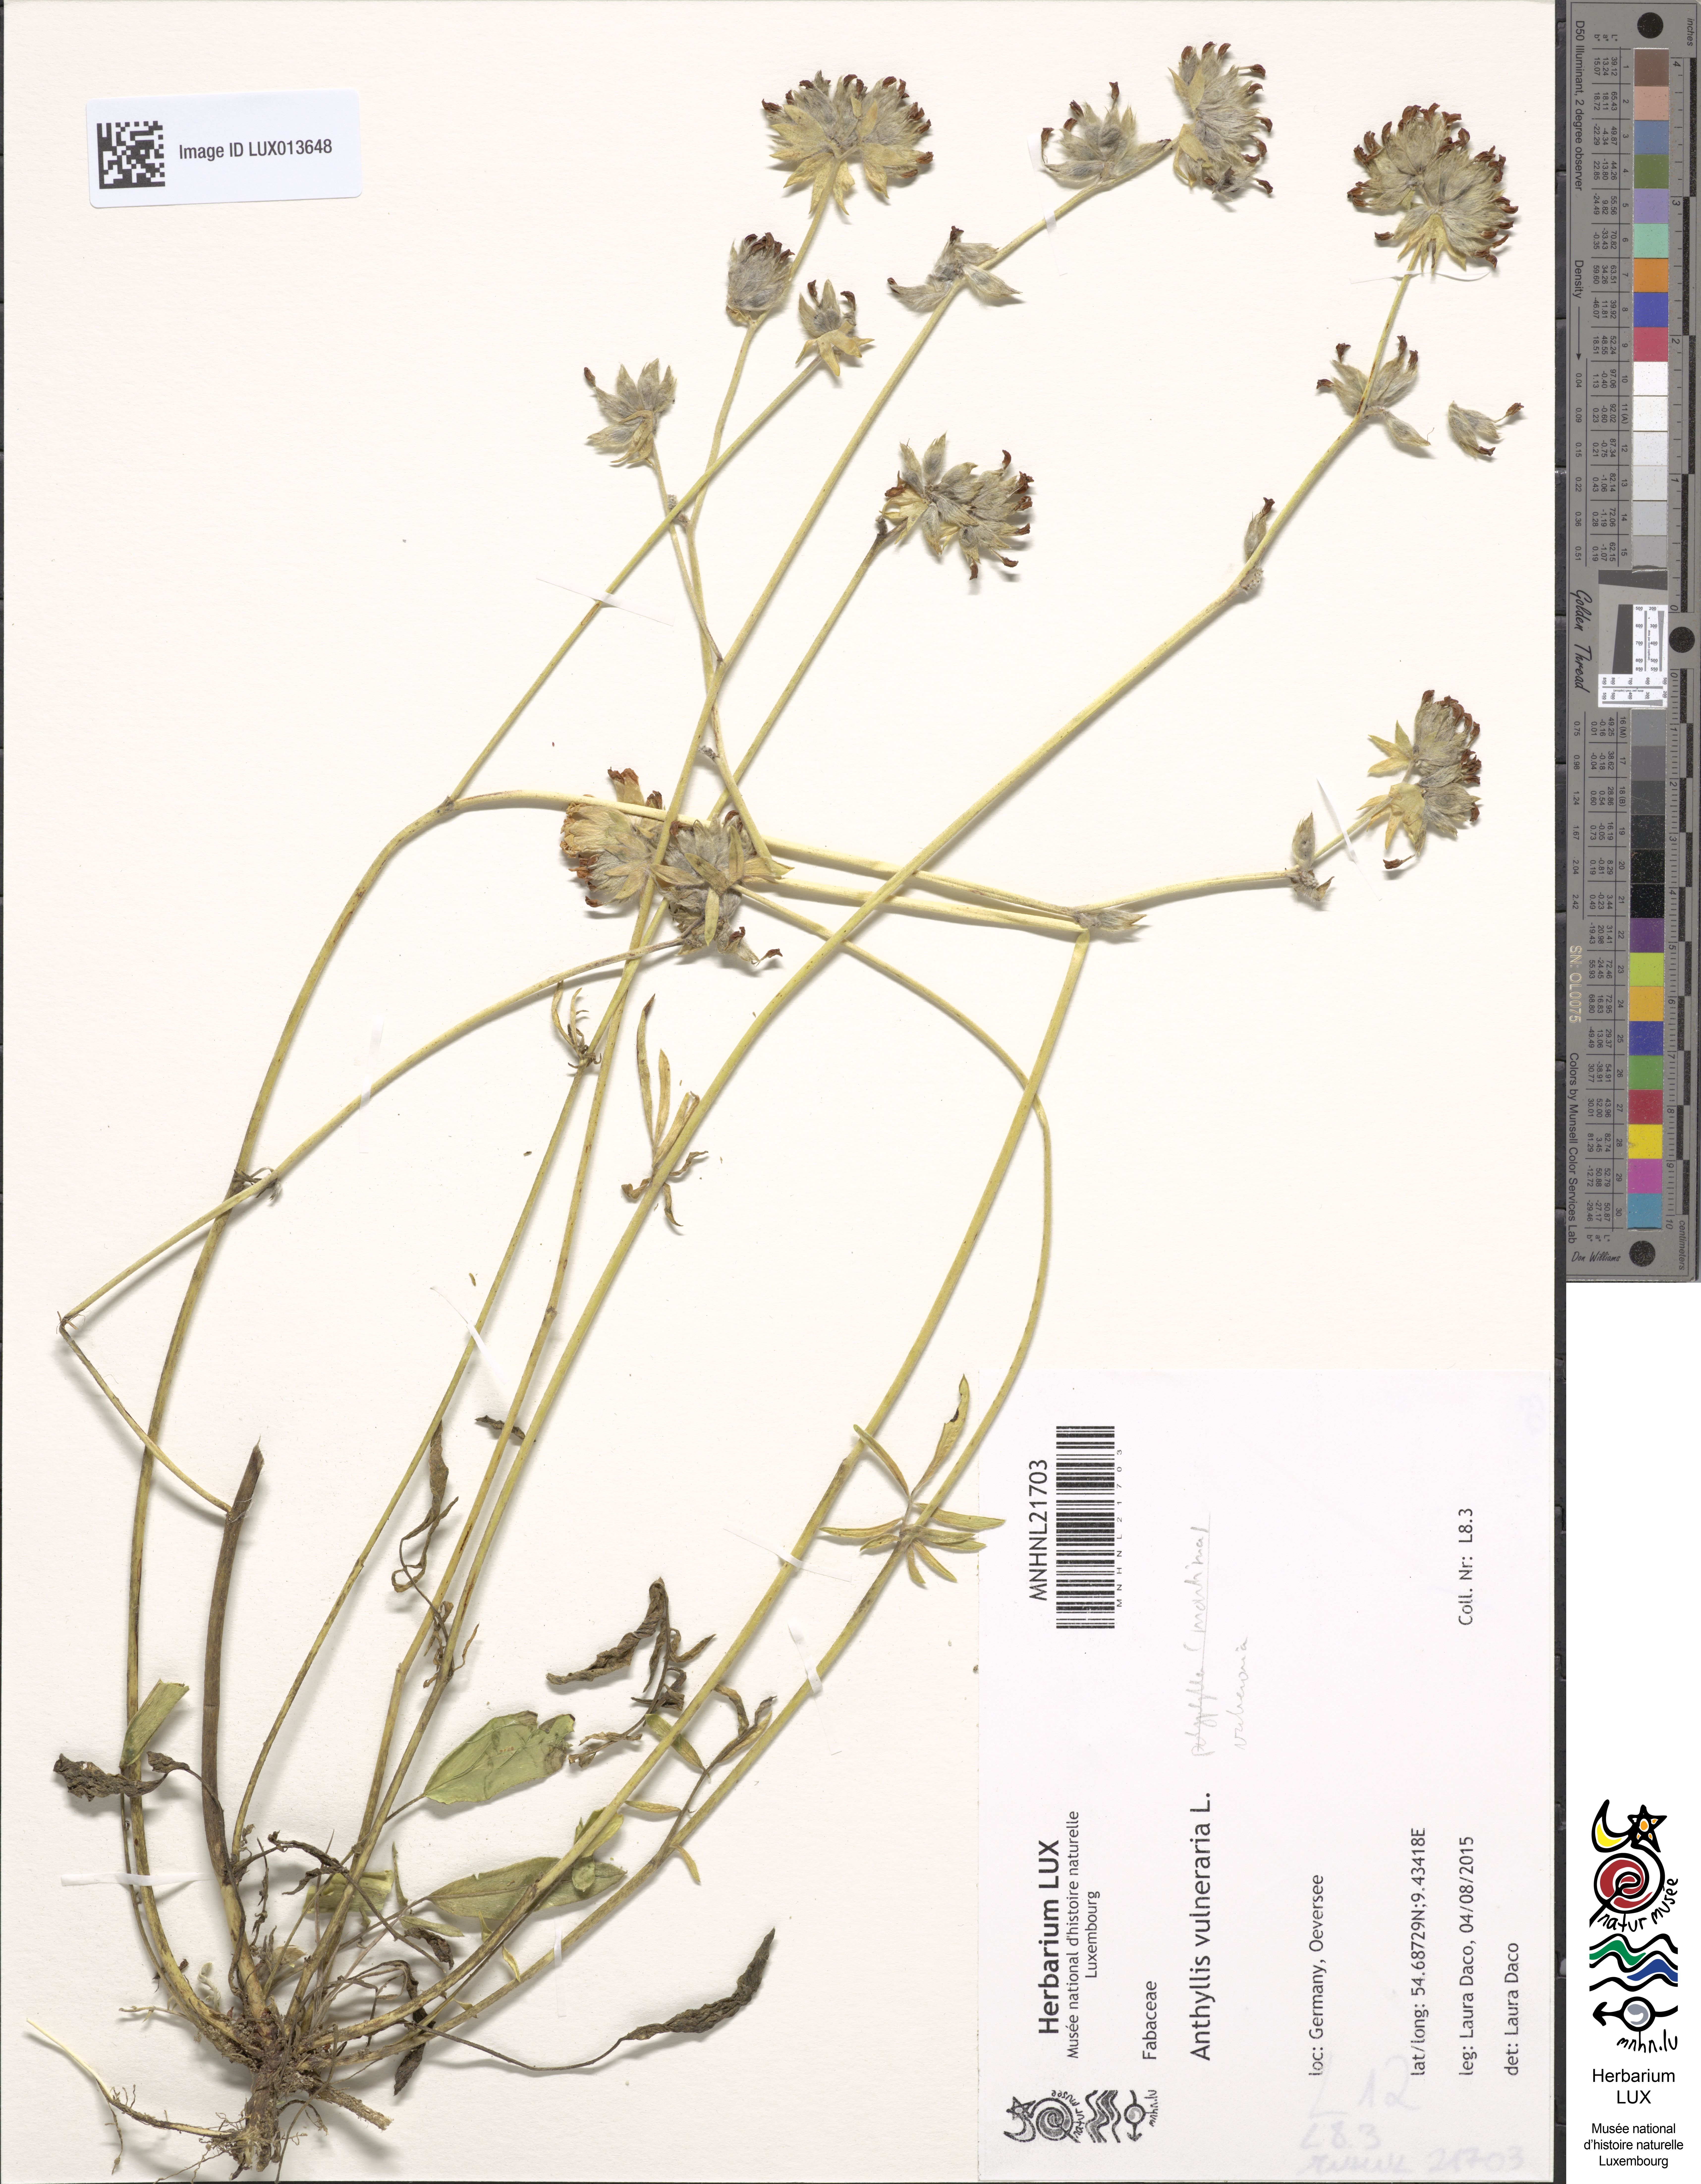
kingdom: Plantae
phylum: Tracheophyta
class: Magnoliopsida
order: Fabales
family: Fabaceae
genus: Anthyllis
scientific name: Anthyllis vulneraria
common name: Kidney vetch
